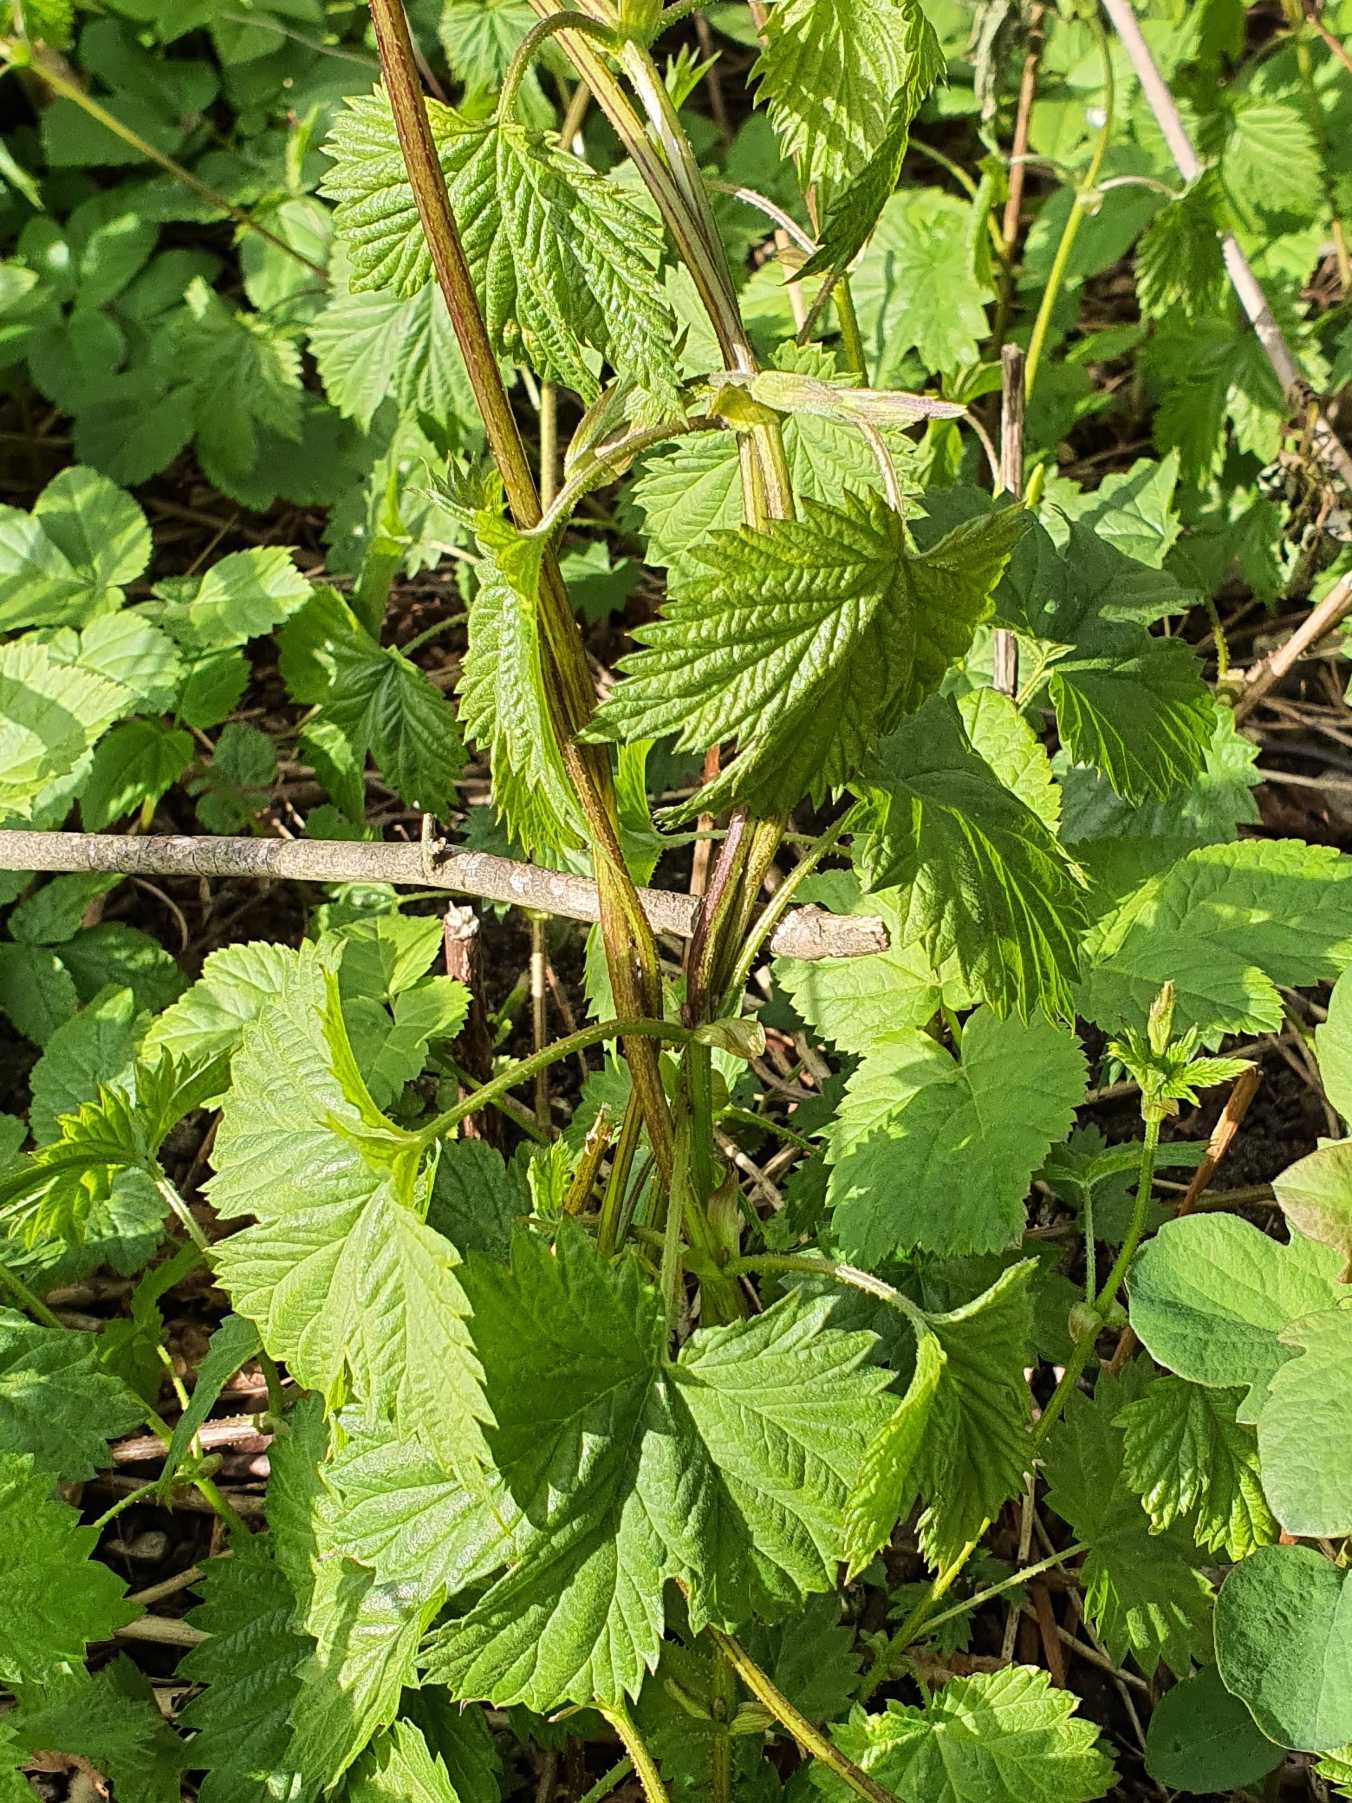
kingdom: Plantae
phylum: Tracheophyta
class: Magnoliopsida
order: Rosales
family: Cannabaceae
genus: Humulus
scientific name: Humulus lupulus
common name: Humle
